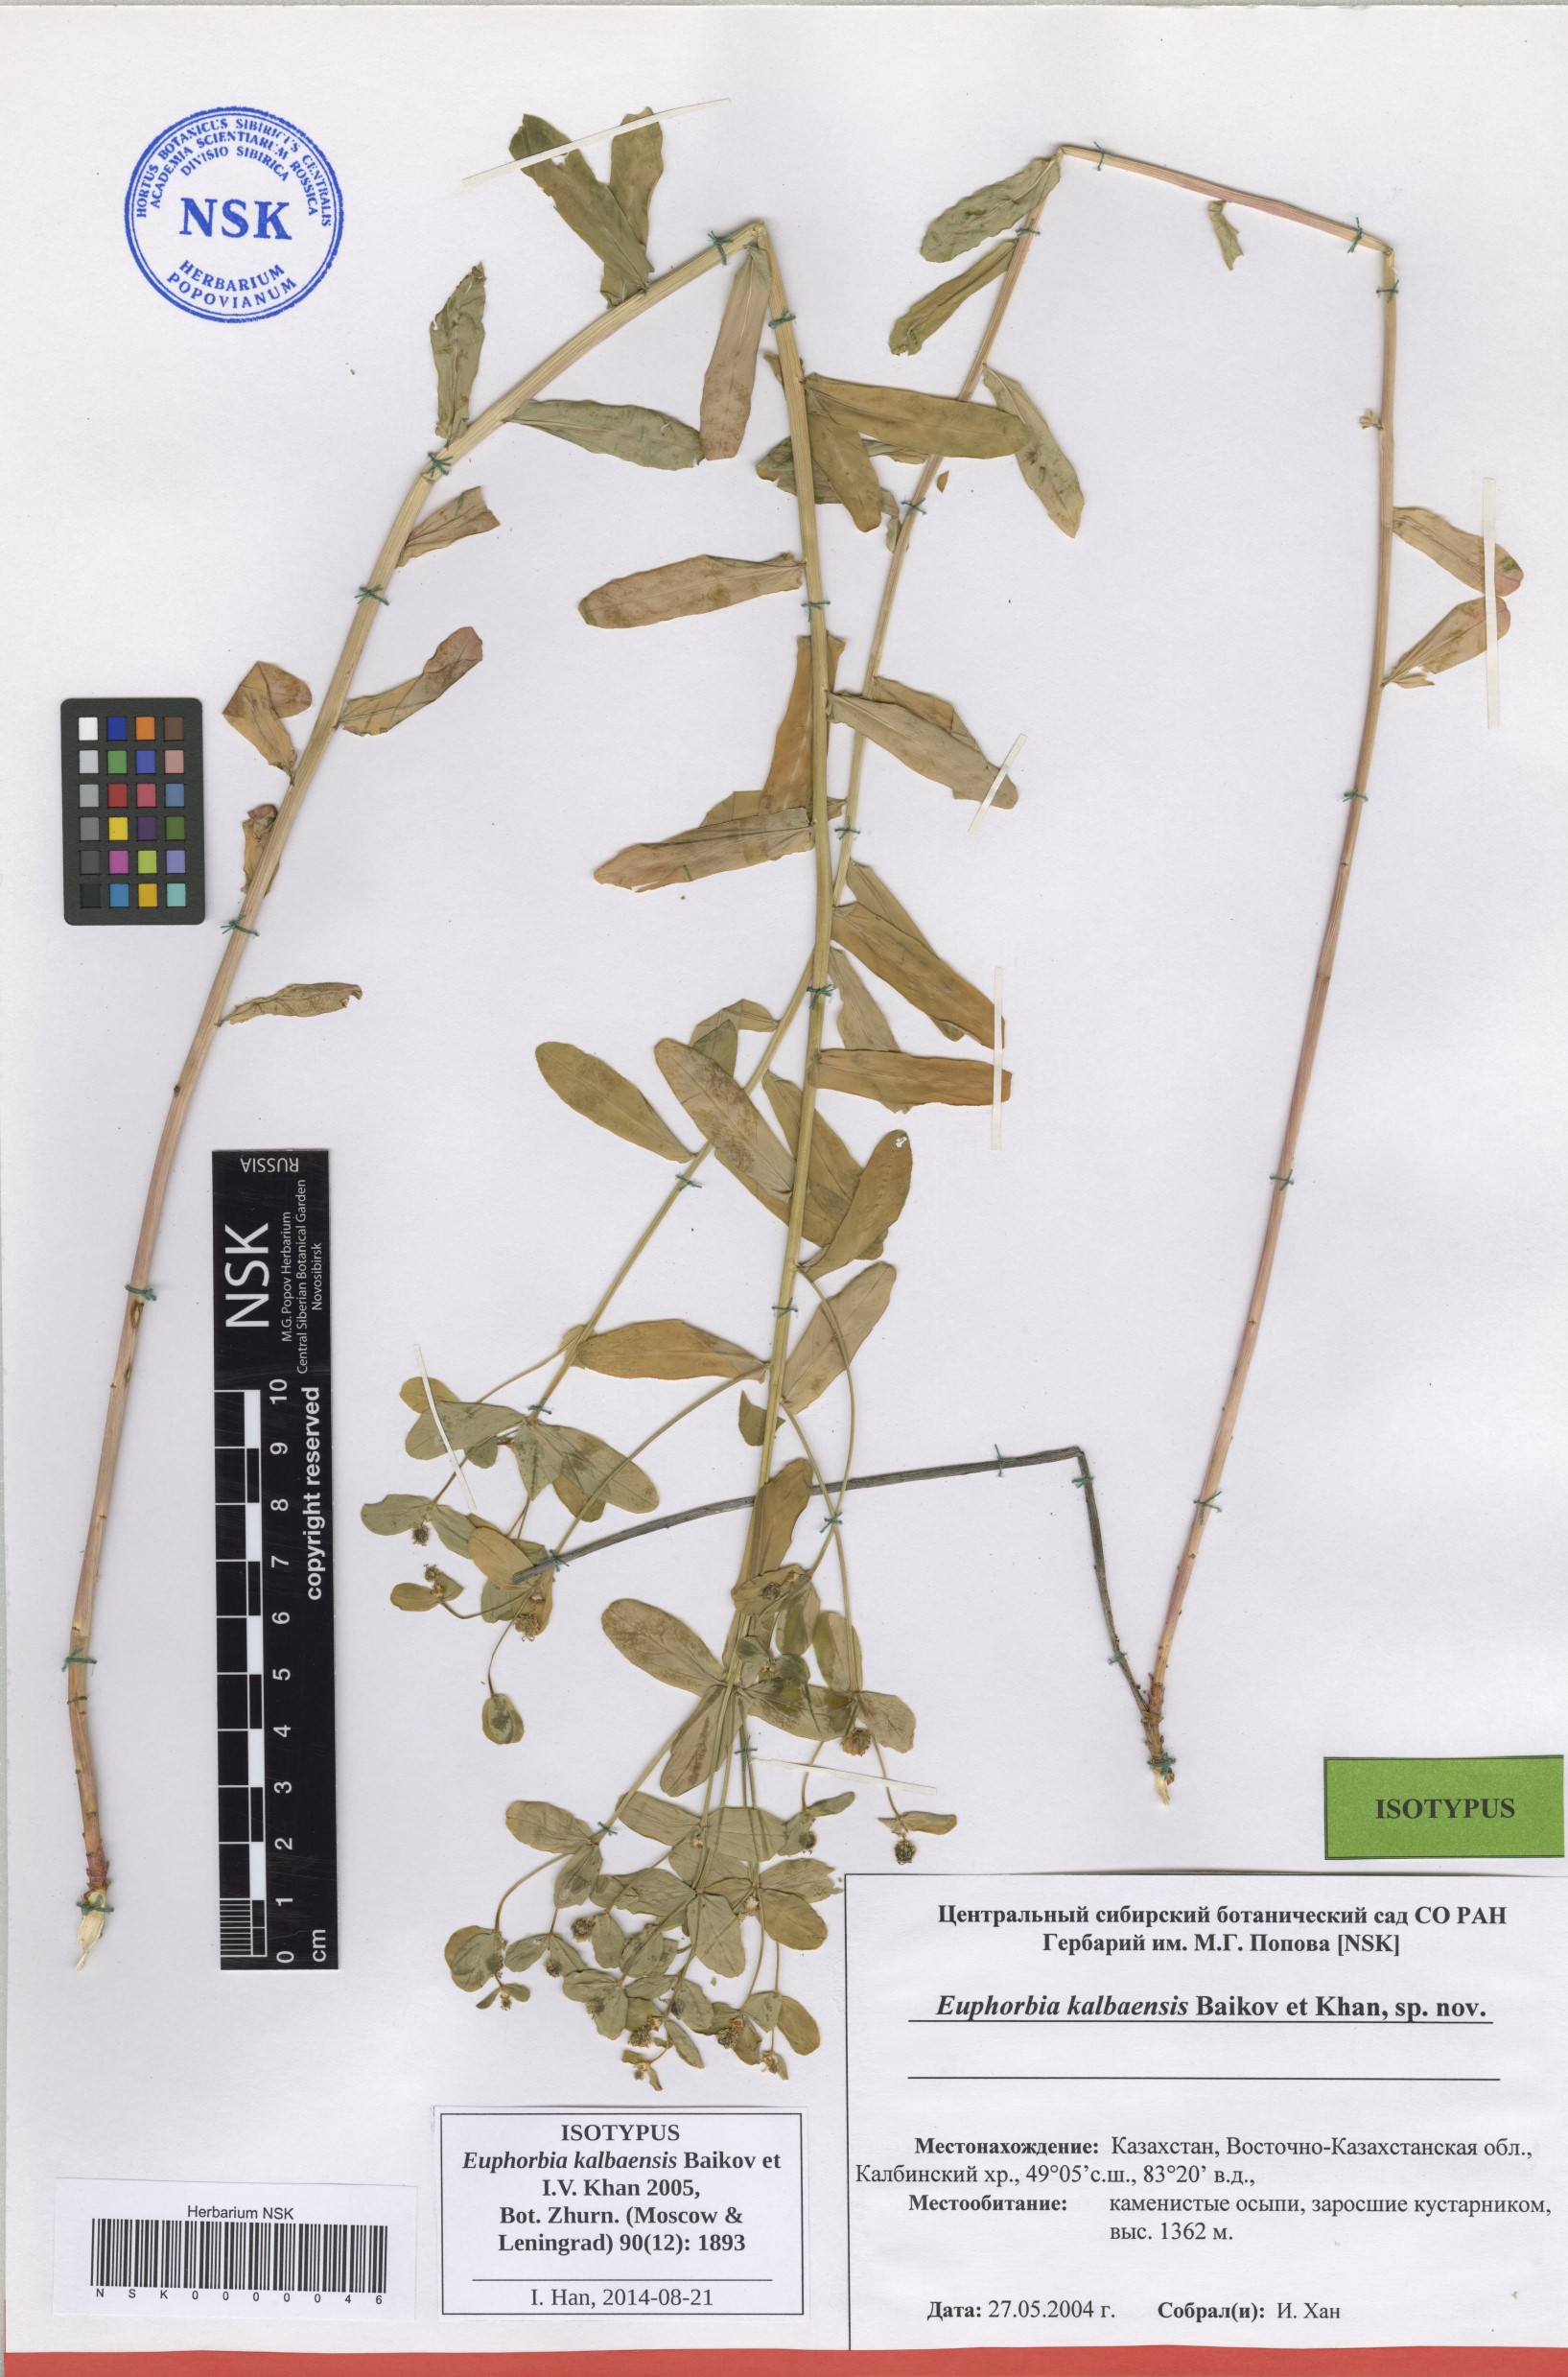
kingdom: Plantae
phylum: Tracheophyta
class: Magnoliopsida
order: Malpighiales
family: Euphorbiaceae
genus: Euphorbia
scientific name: Euphorbia kalbaensis
